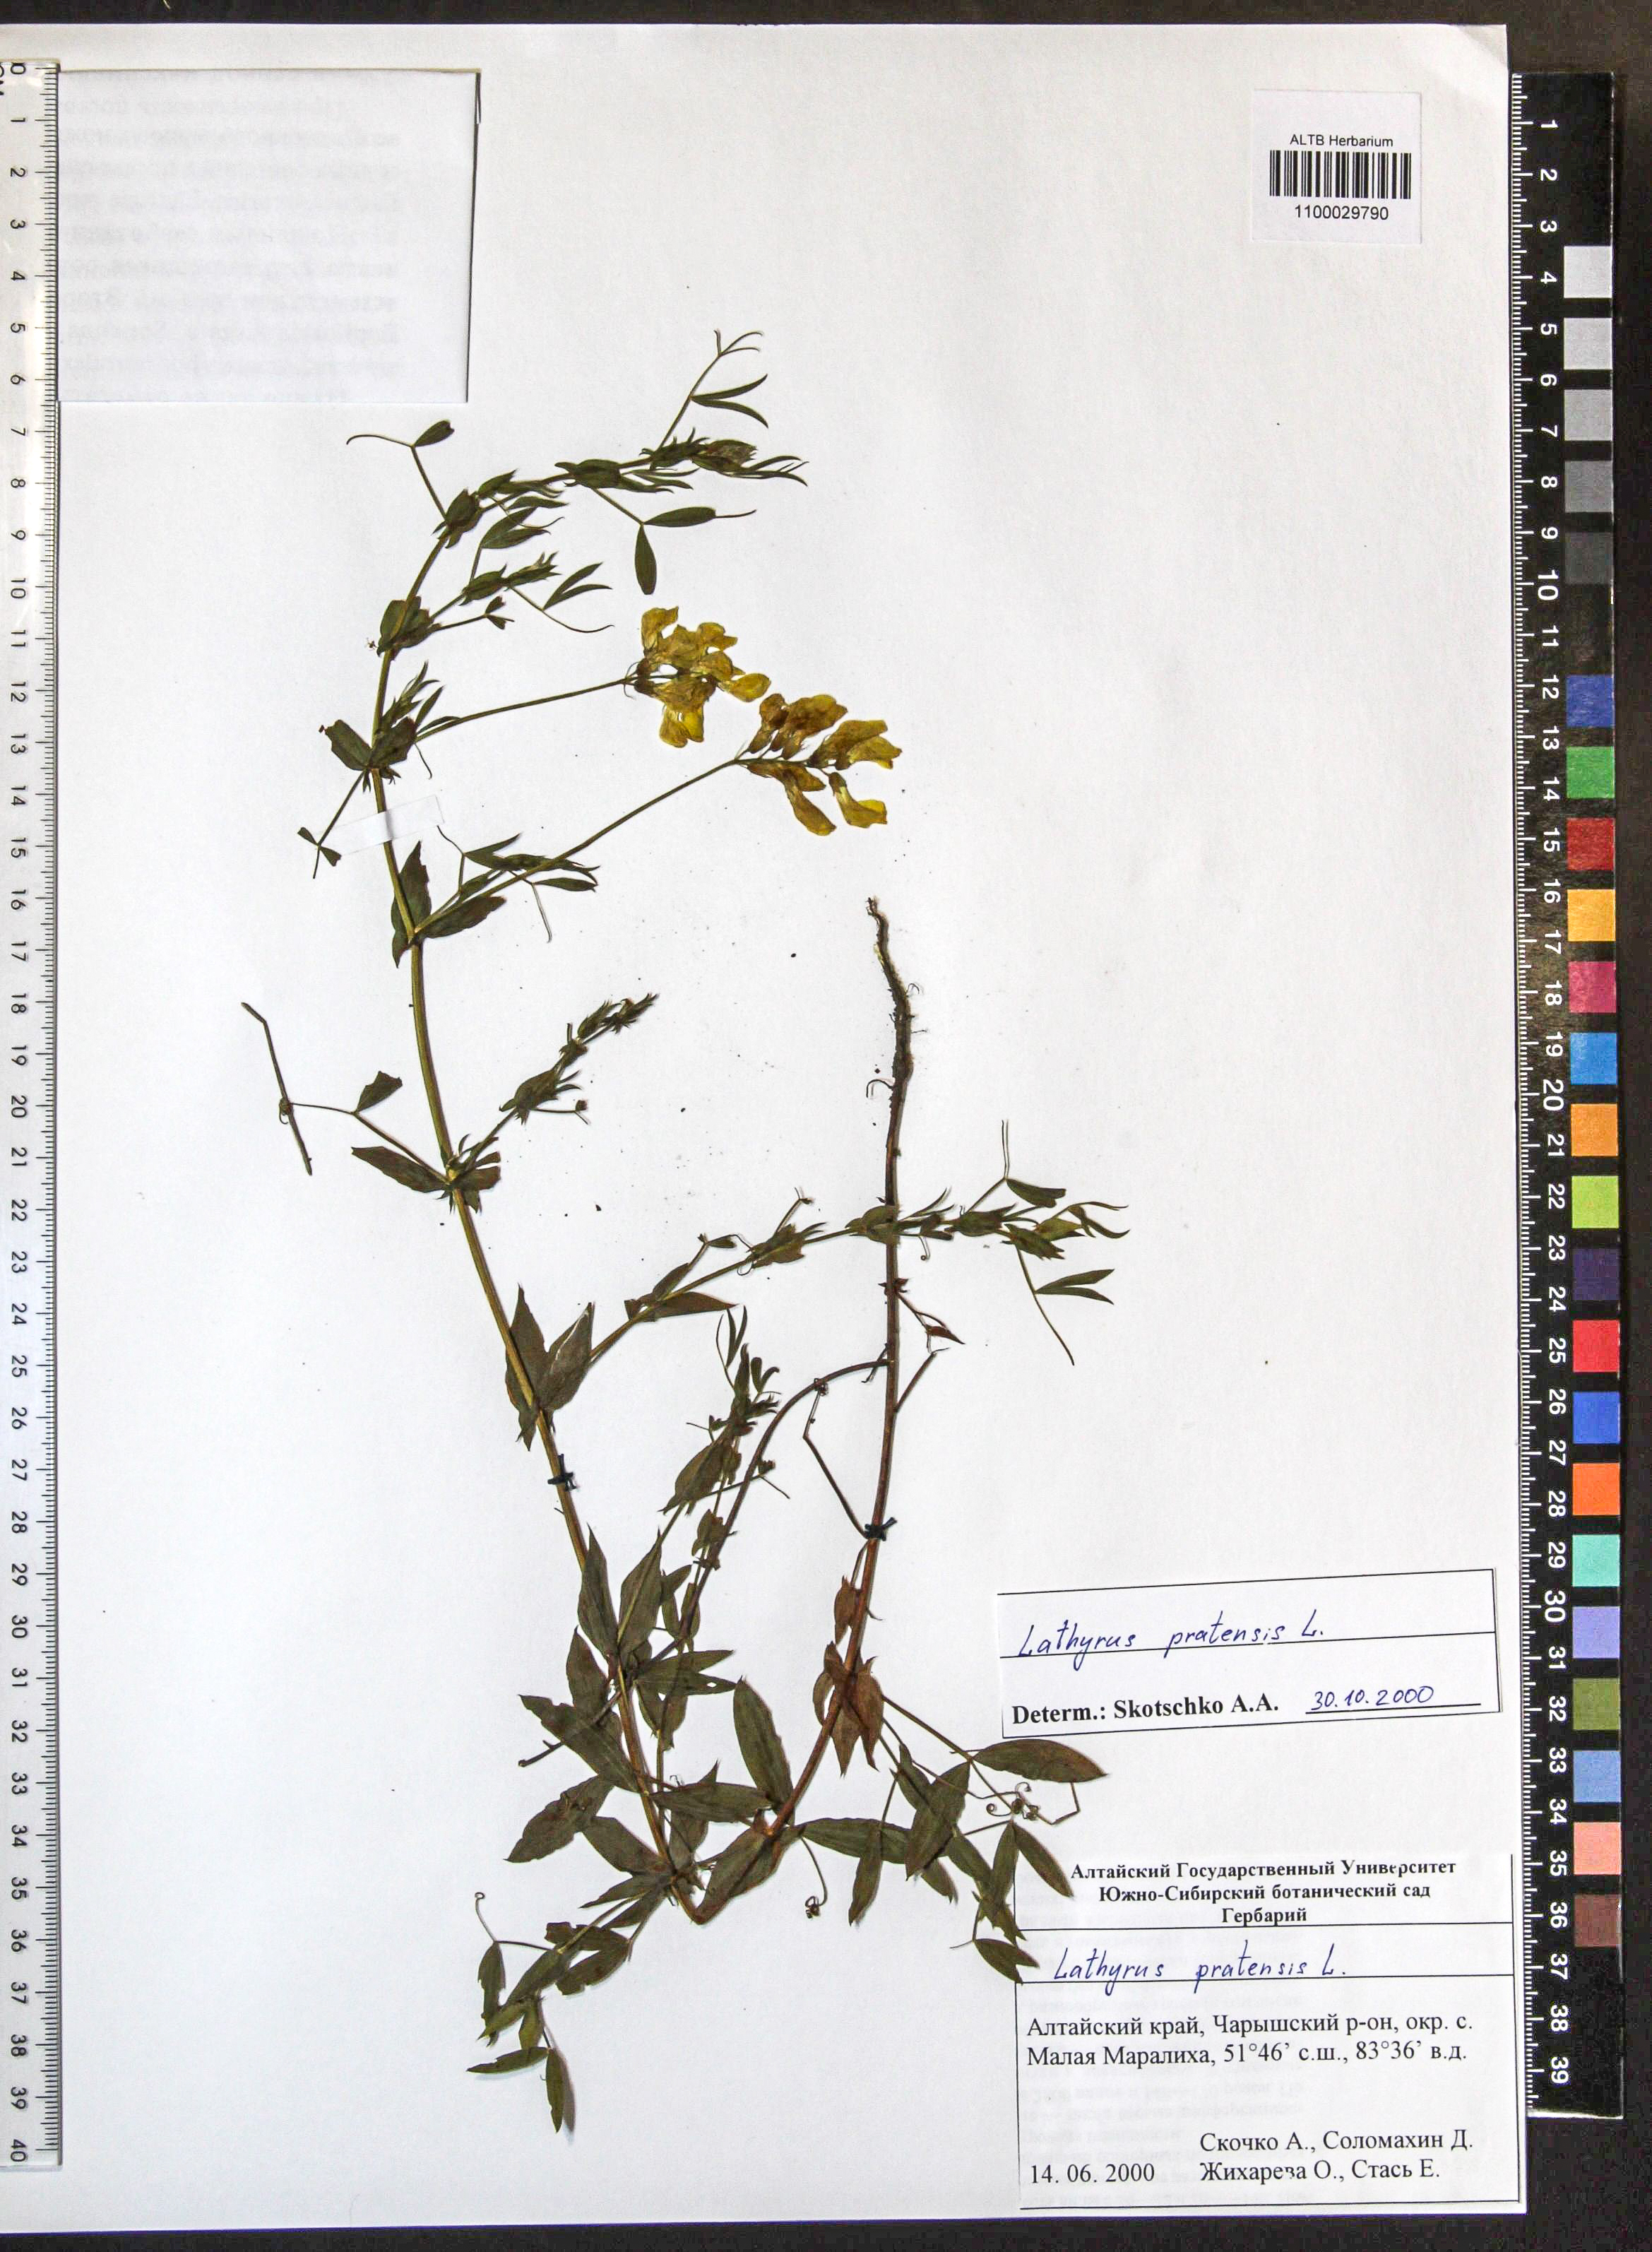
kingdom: Plantae
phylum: Tracheophyta
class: Magnoliopsida
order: Fabales
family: Fabaceae
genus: Lathyrus
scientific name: Lathyrus pratensis
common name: Meadow vetchling
